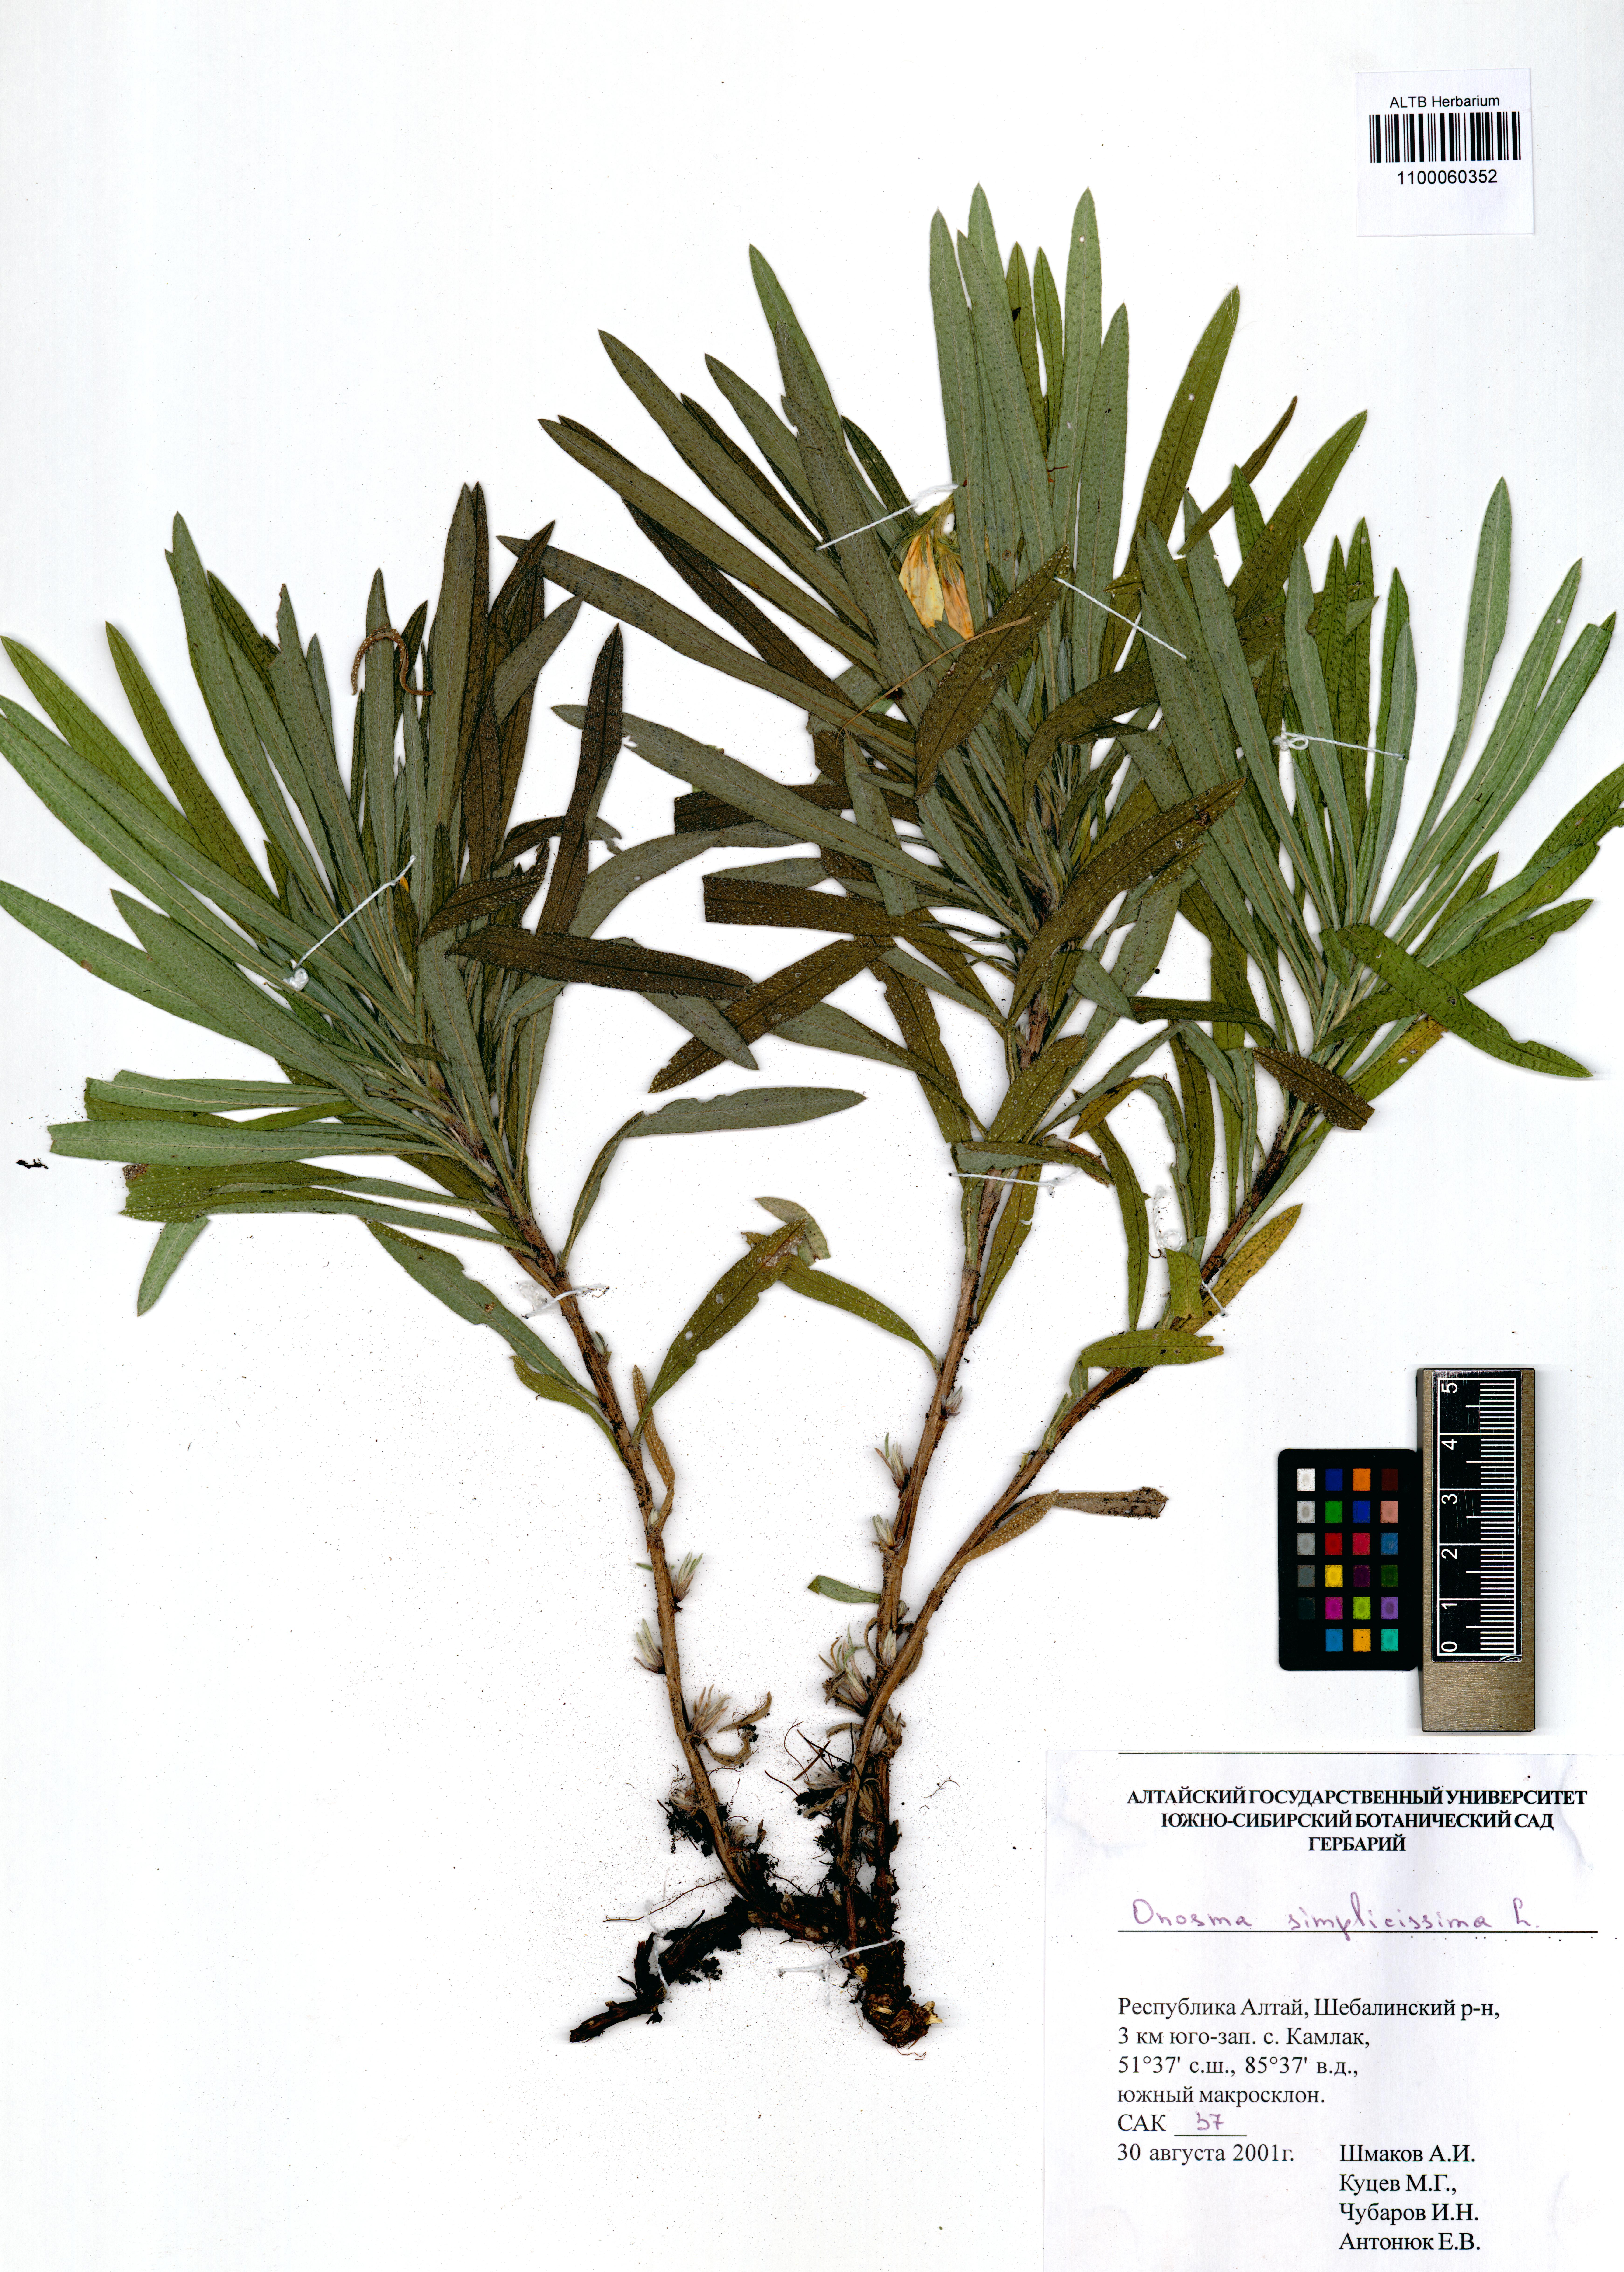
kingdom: Plantae
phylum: Tracheophyta
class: Magnoliopsida
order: Boraginales
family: Boraginaceae
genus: Onosma
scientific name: Onosma simplicissima
